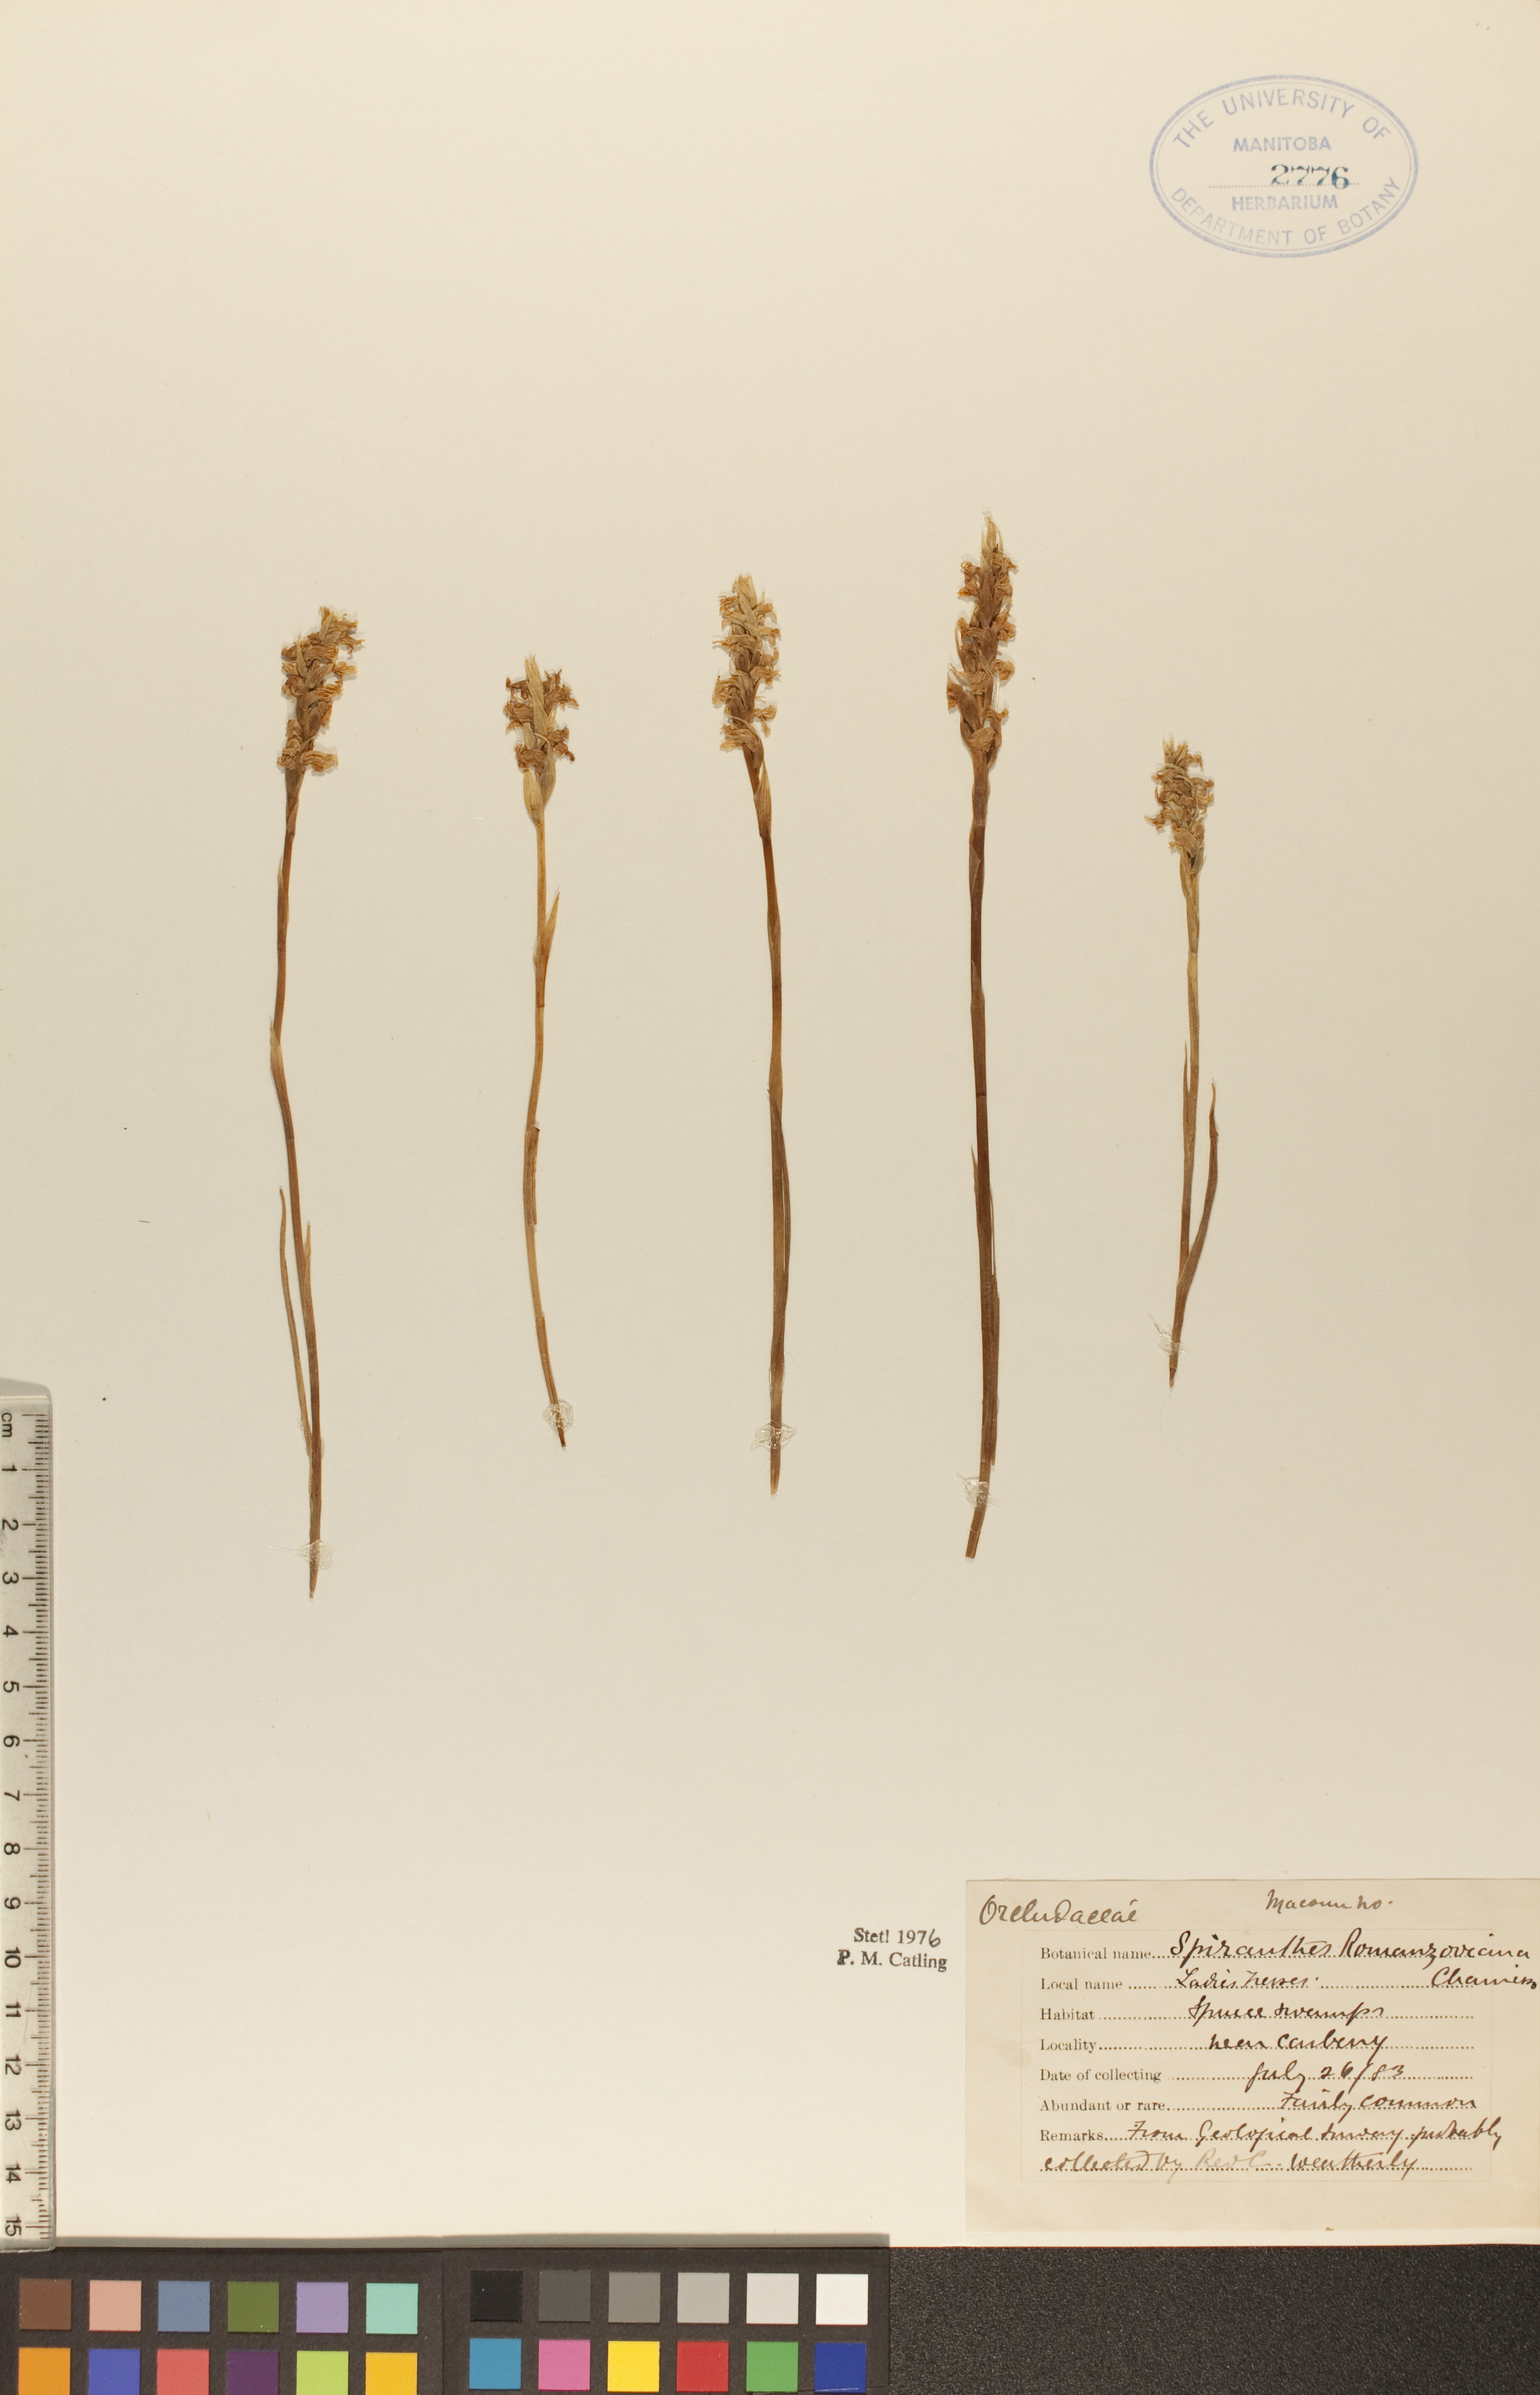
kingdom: Plantae
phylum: Tracheophyta
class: Liliopsida
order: Asparagales
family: Orchidaceae
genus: Spiranthes
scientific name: Spiranthes romanzoffiana
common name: Irish lady's-tresses
